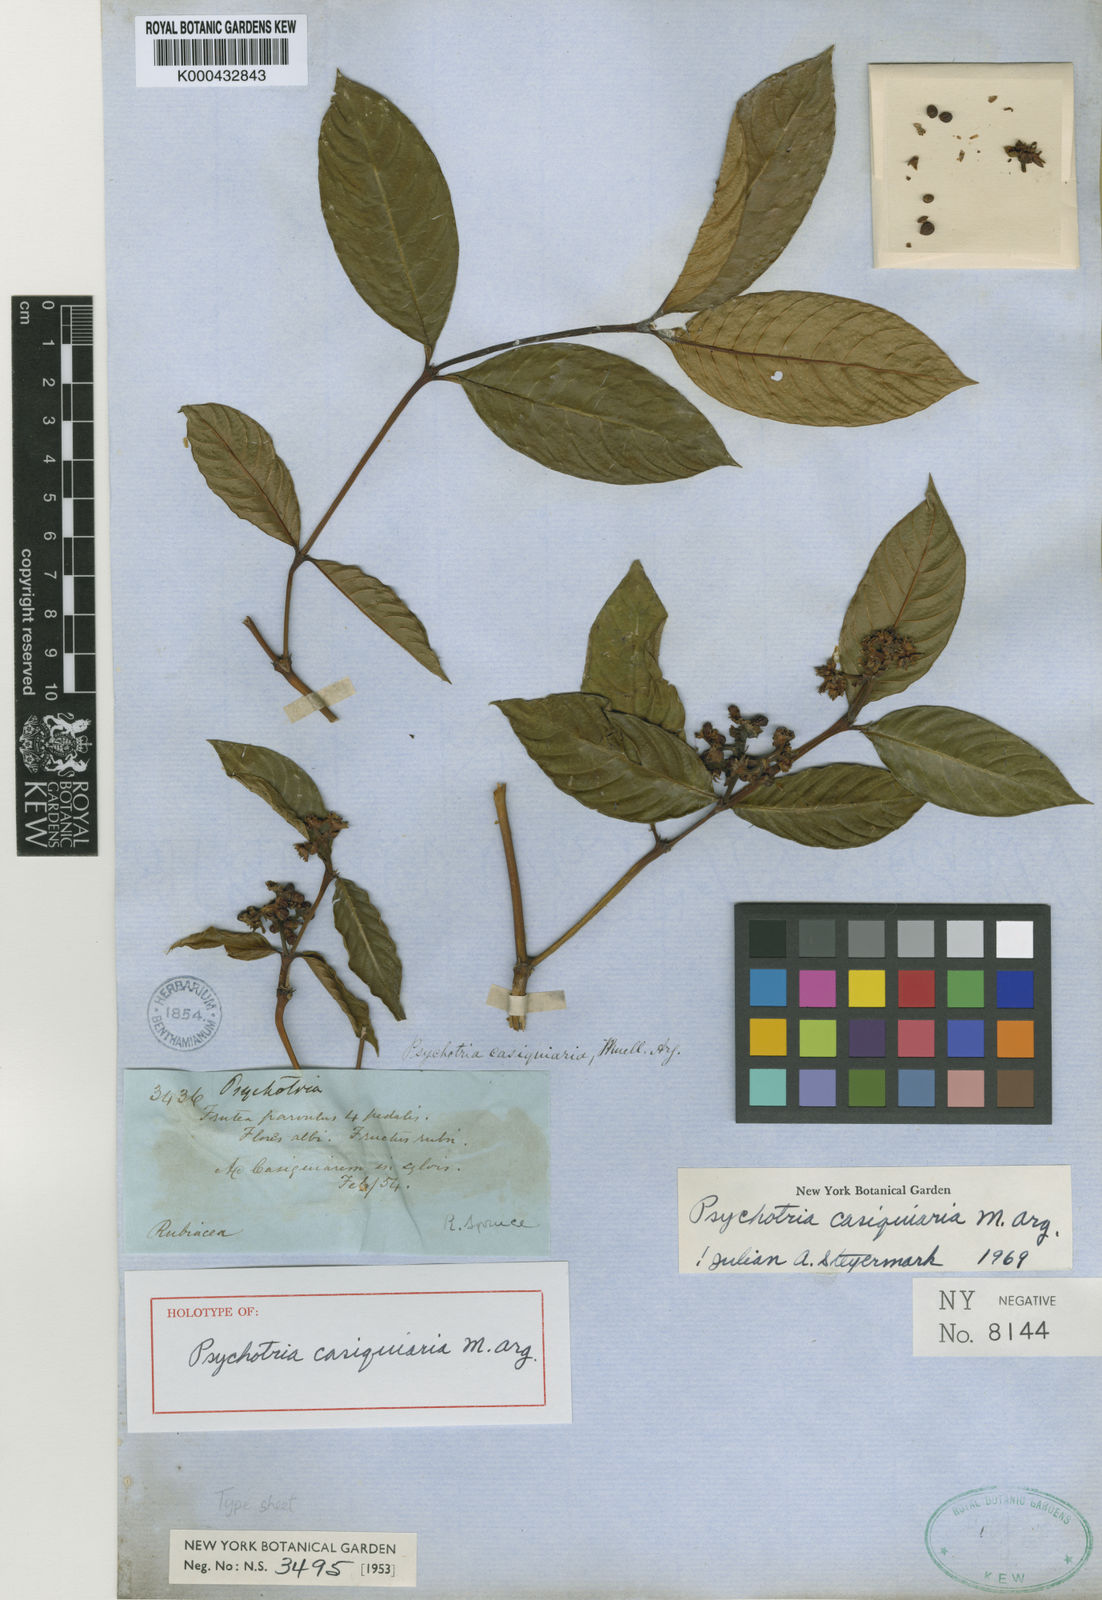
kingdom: Plantae
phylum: Tracheophyta
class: Magnoliopsida
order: Gentianales
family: Rubiaceae
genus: Psychotria
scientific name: Psychotria
